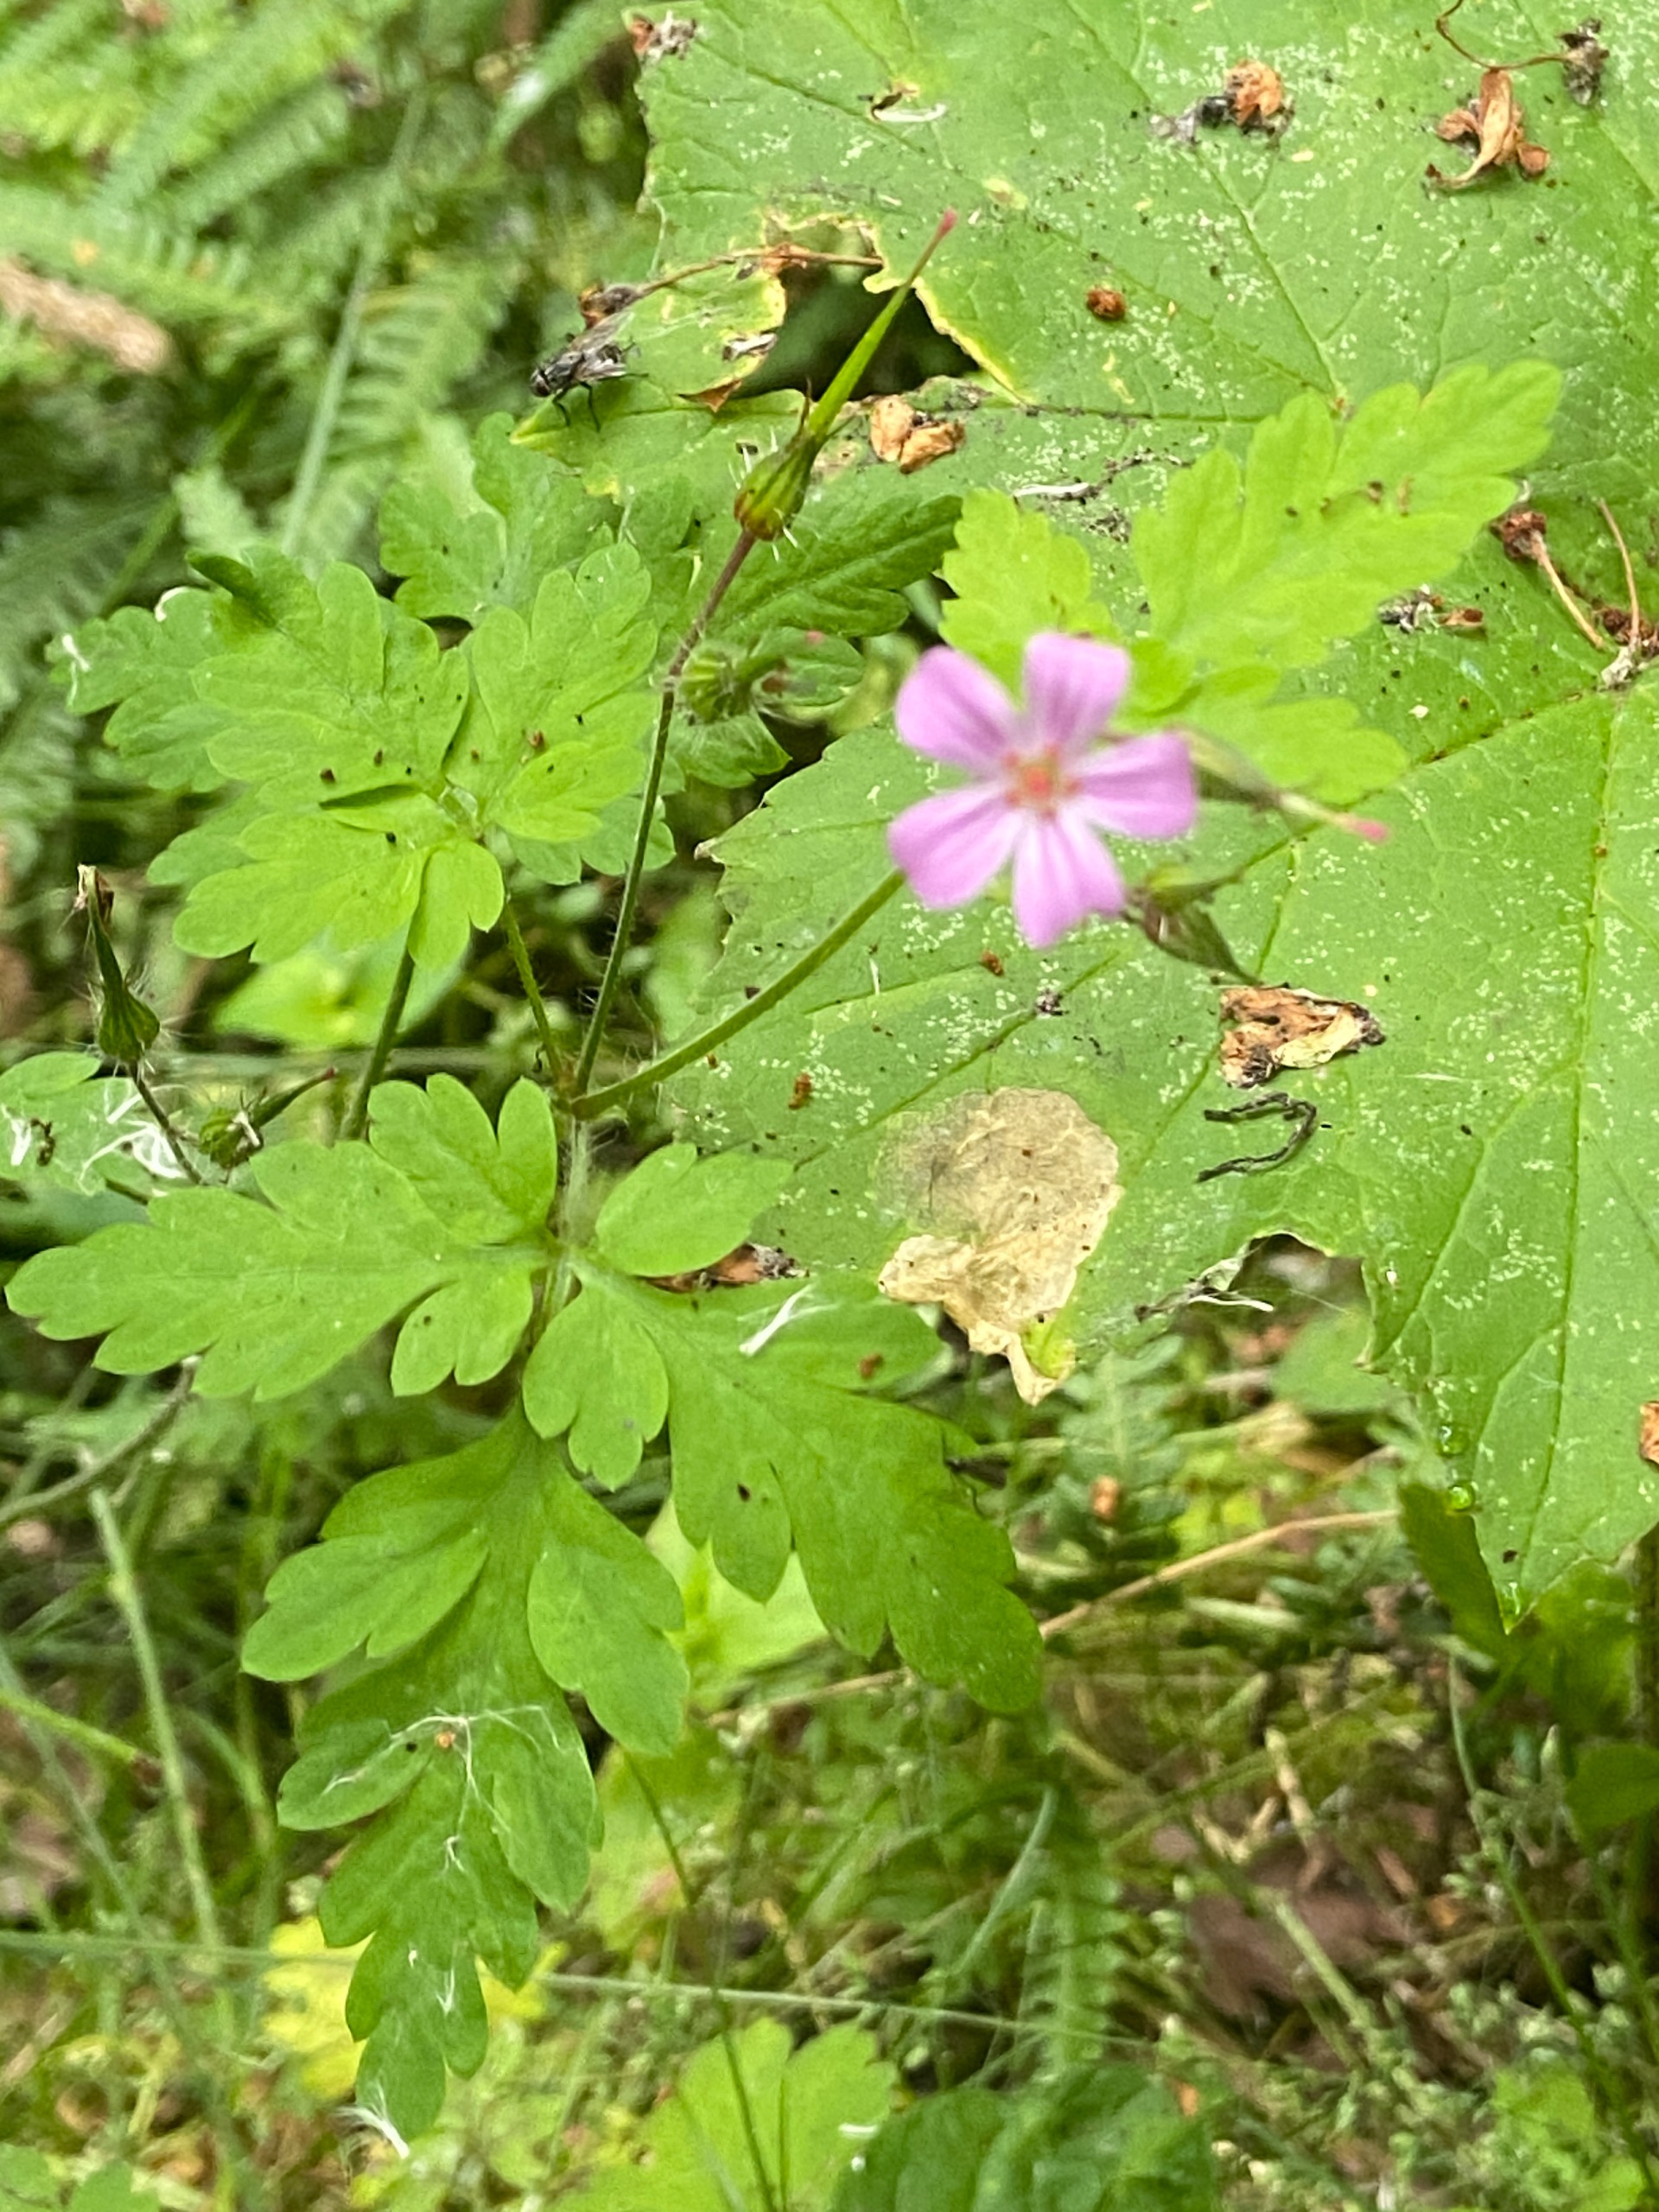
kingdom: Plantae
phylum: Tracheophyta
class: Magnoliopsida
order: Geraniales
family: Geraniaceae
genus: Geranium
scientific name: Geranium robertianum
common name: Stinkende storkenæb
